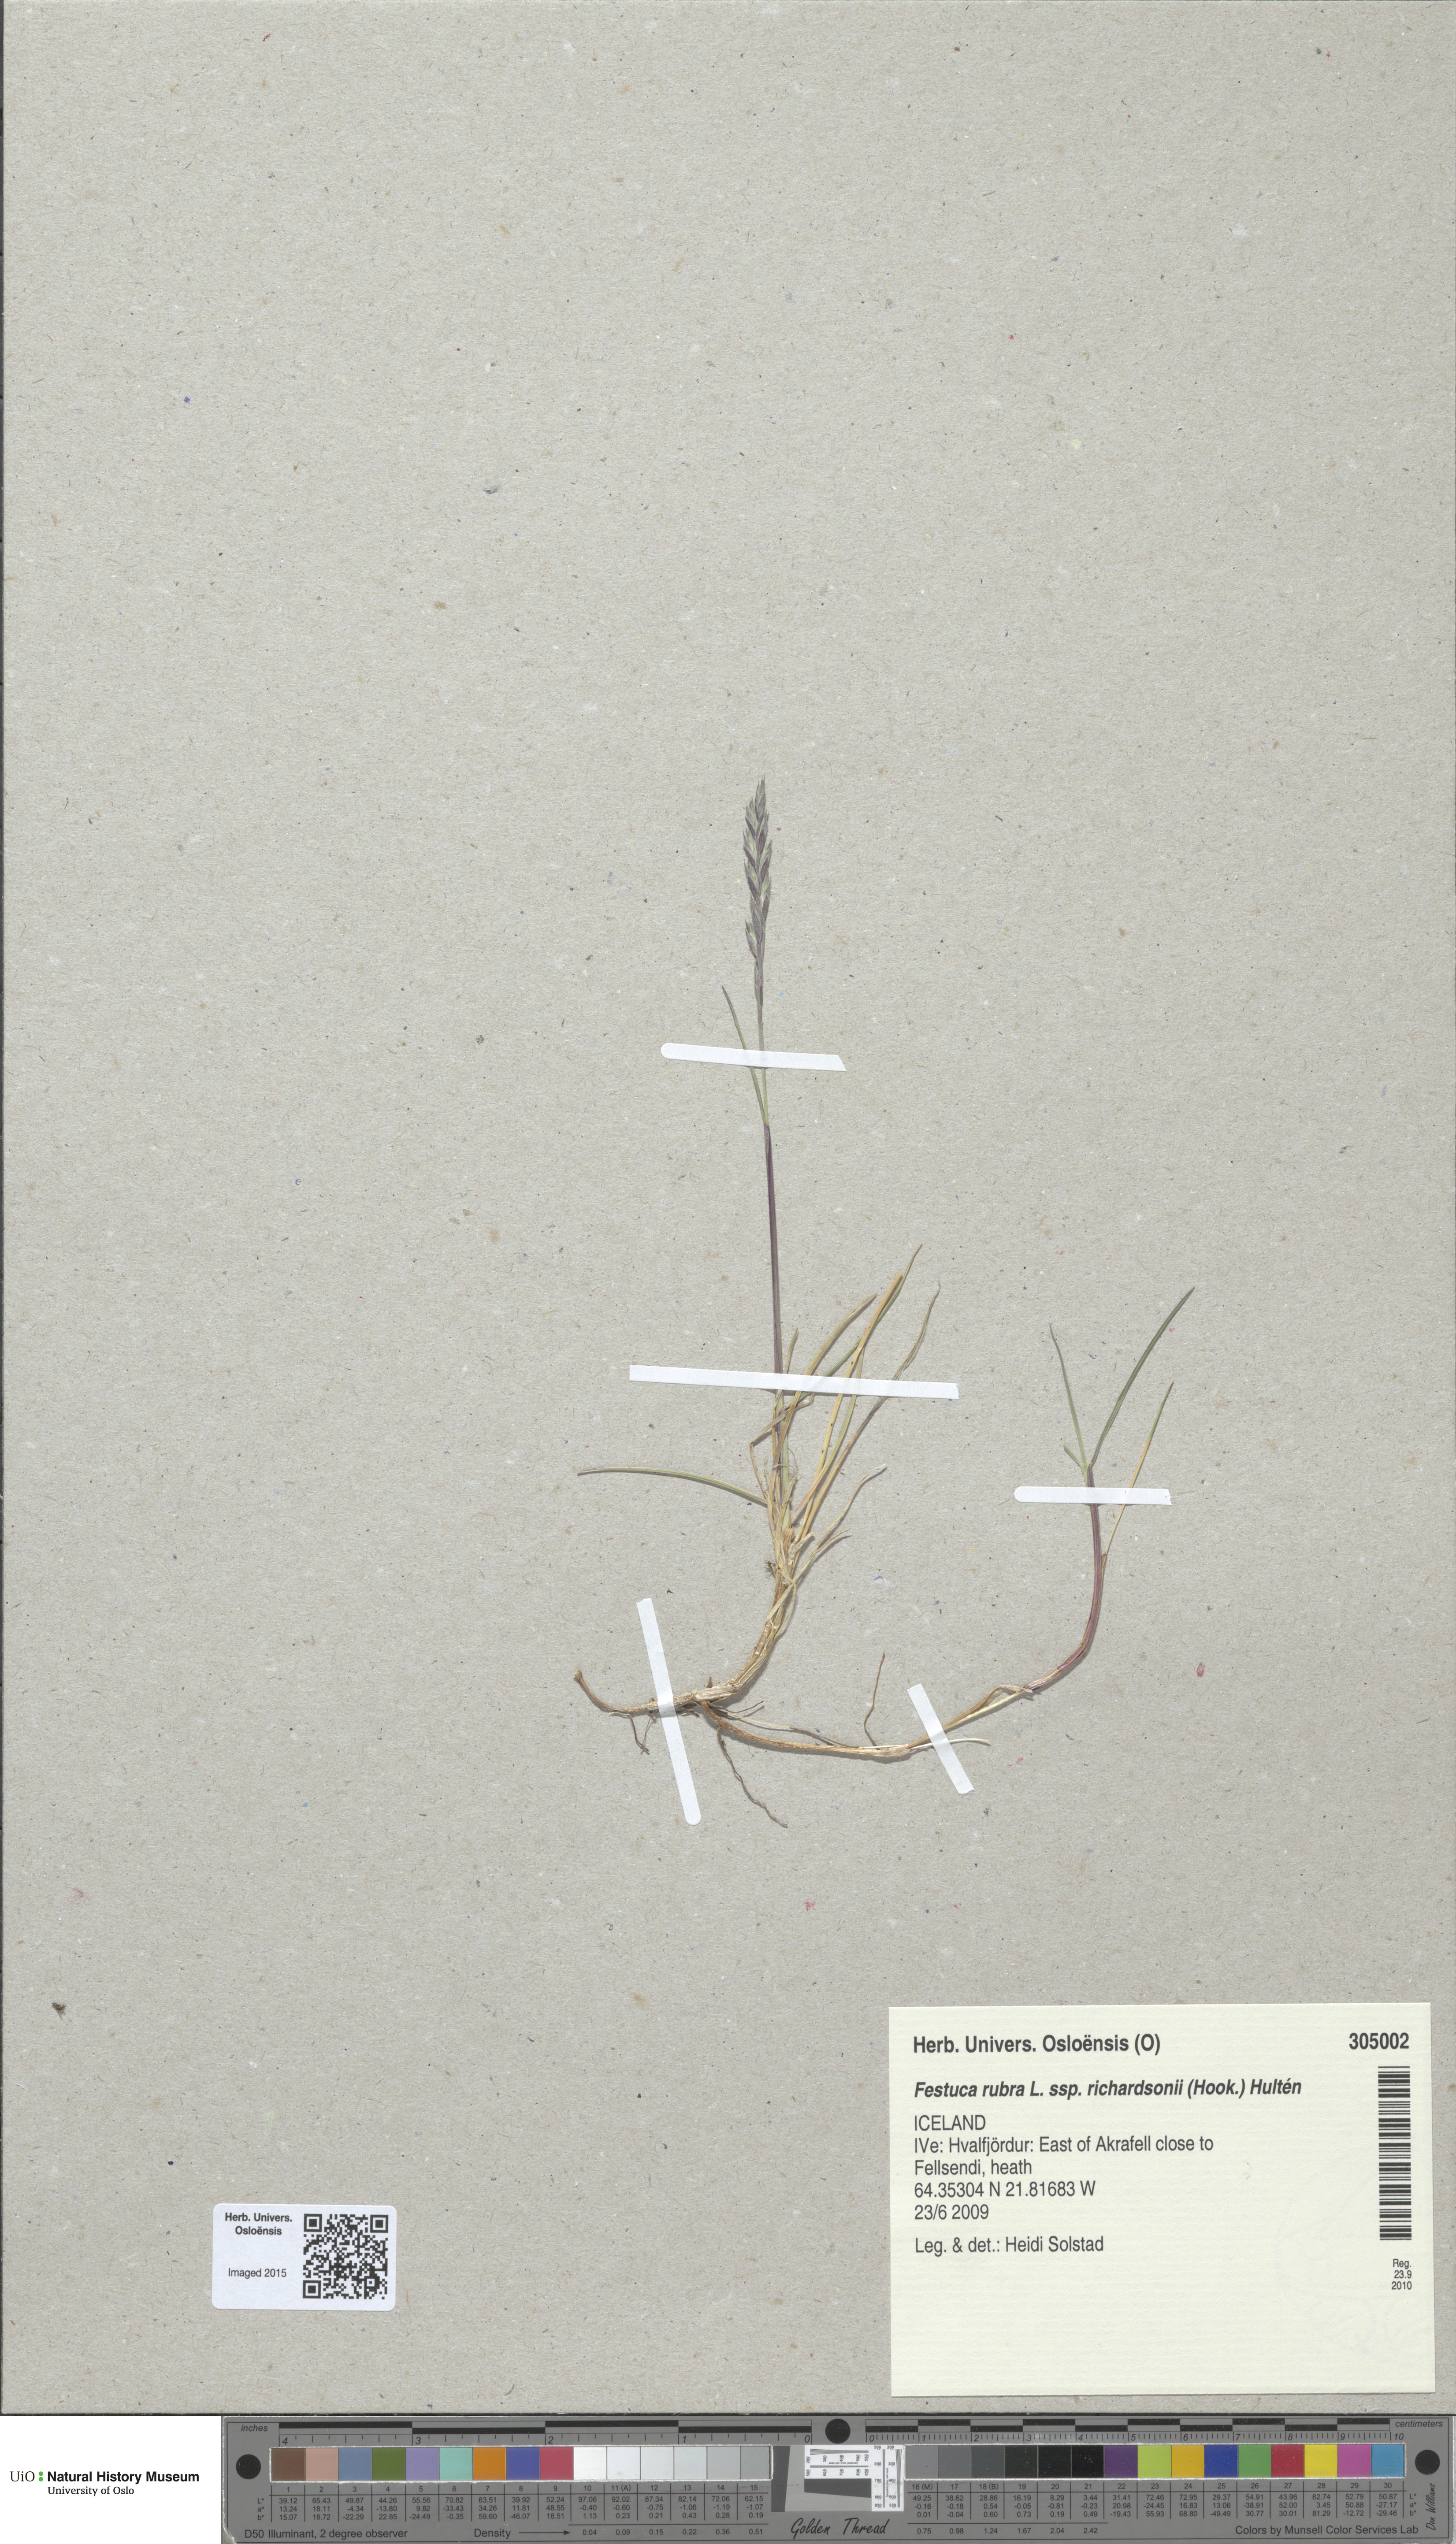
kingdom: Plantae
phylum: Tracheophyta
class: Liliopsida
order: Poales
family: Poaceae
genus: Festuca
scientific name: Festuca richardsonii
